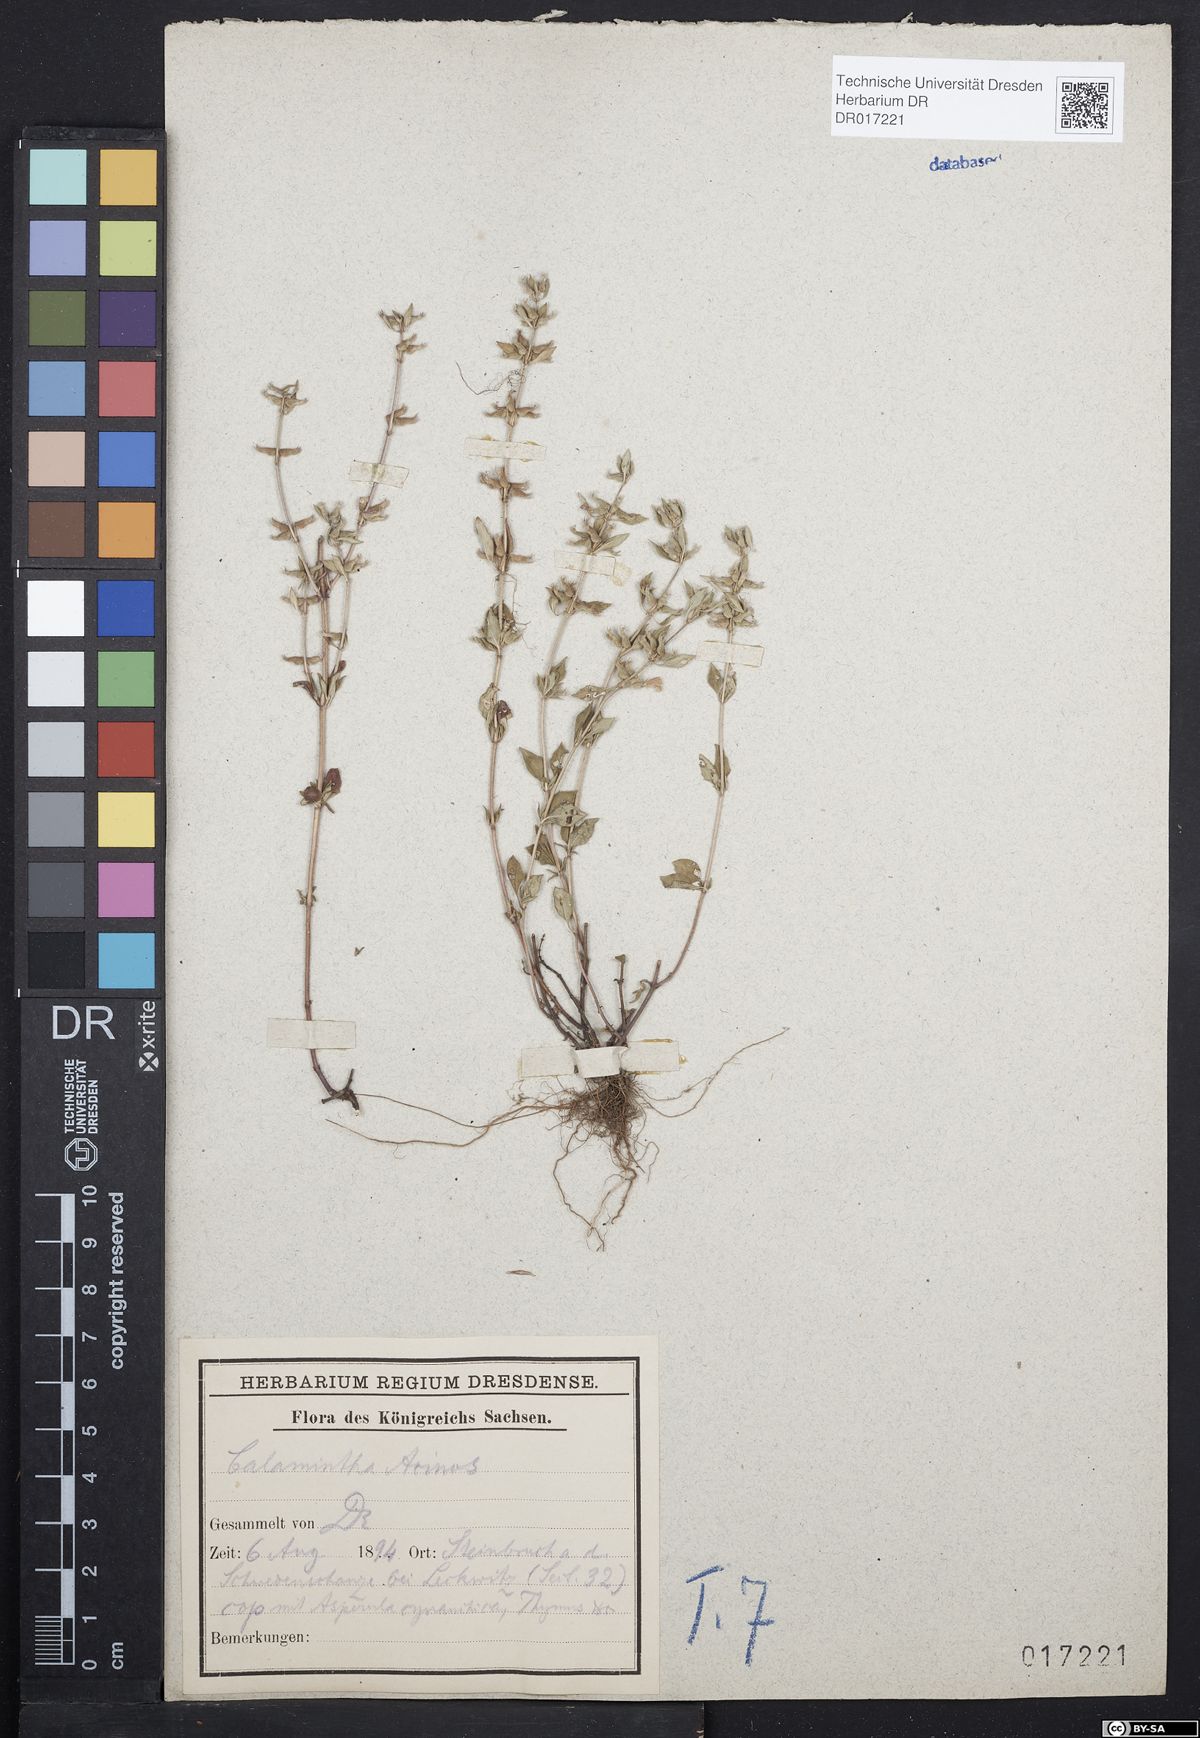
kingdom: Plantae
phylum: Tracheophyta
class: Magnoliopsida
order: Lamiales
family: Lamiaceae
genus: Clinopodium
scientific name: Clinopodium acinos
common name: Basil thyme
